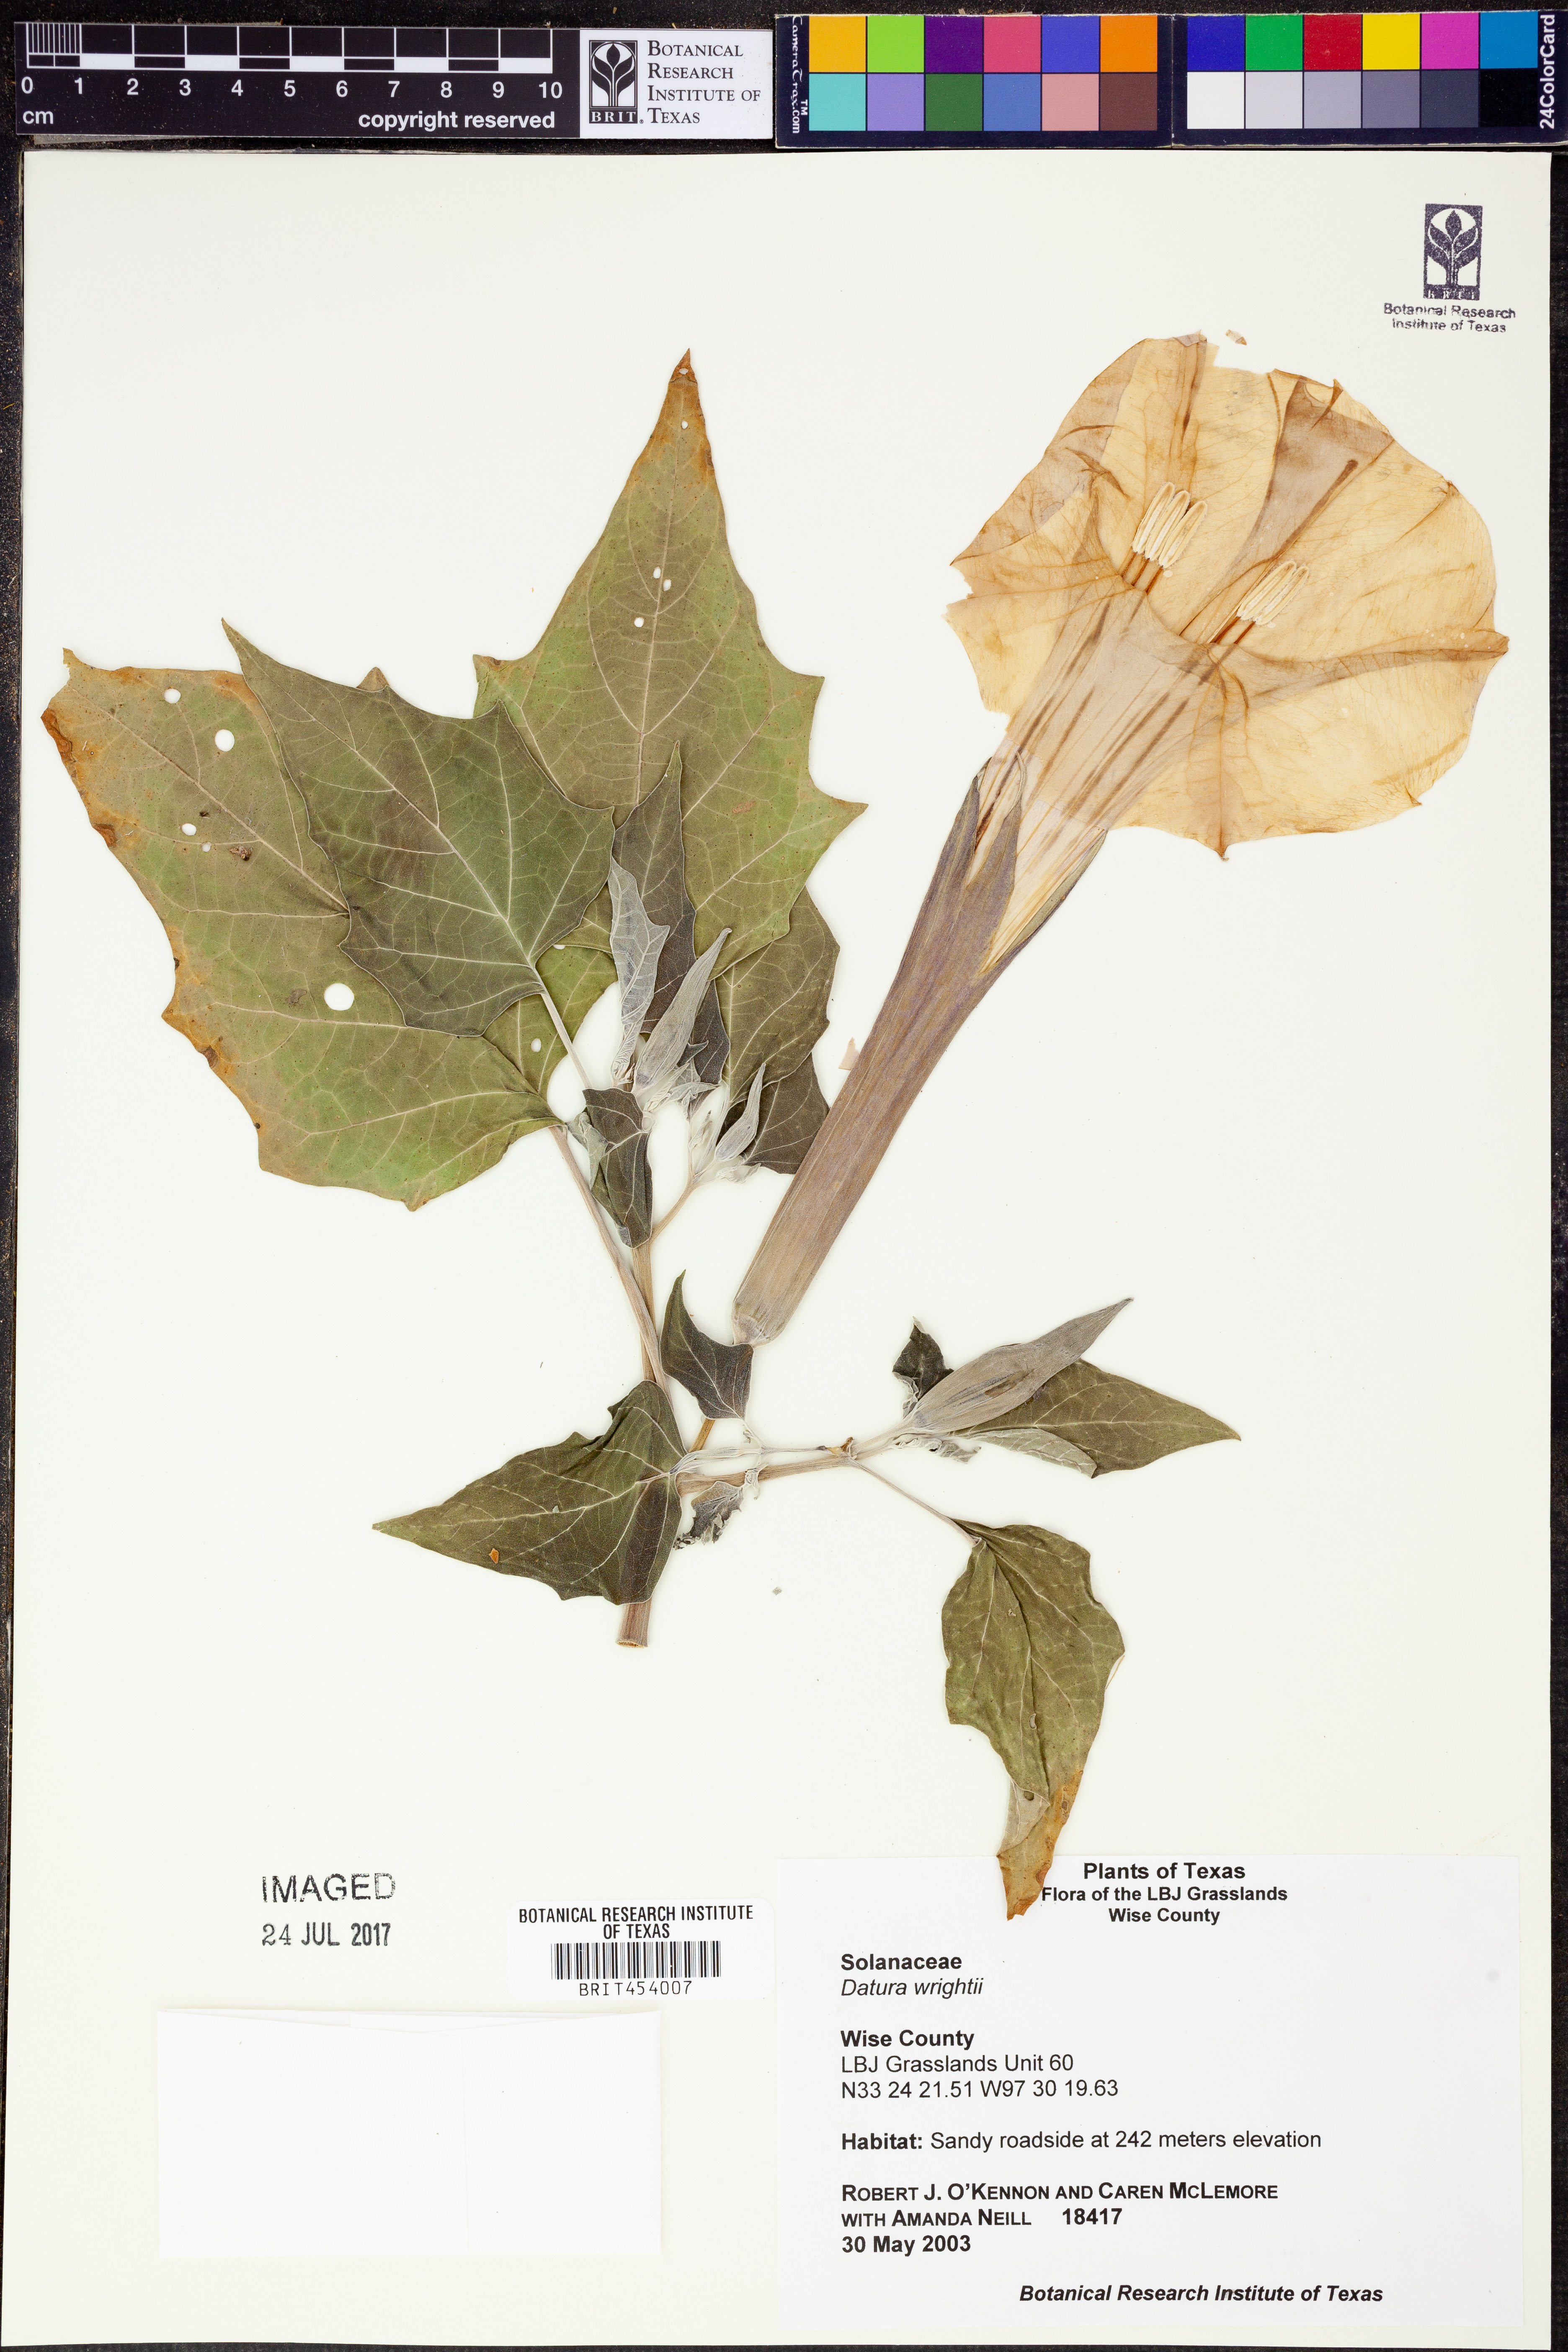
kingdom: Plantae
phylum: Tracheophyta
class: Magnoliopsida
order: Solanales
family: Solanaceae
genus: Datura
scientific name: Datura wrightii
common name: Sacred thorn-apple
